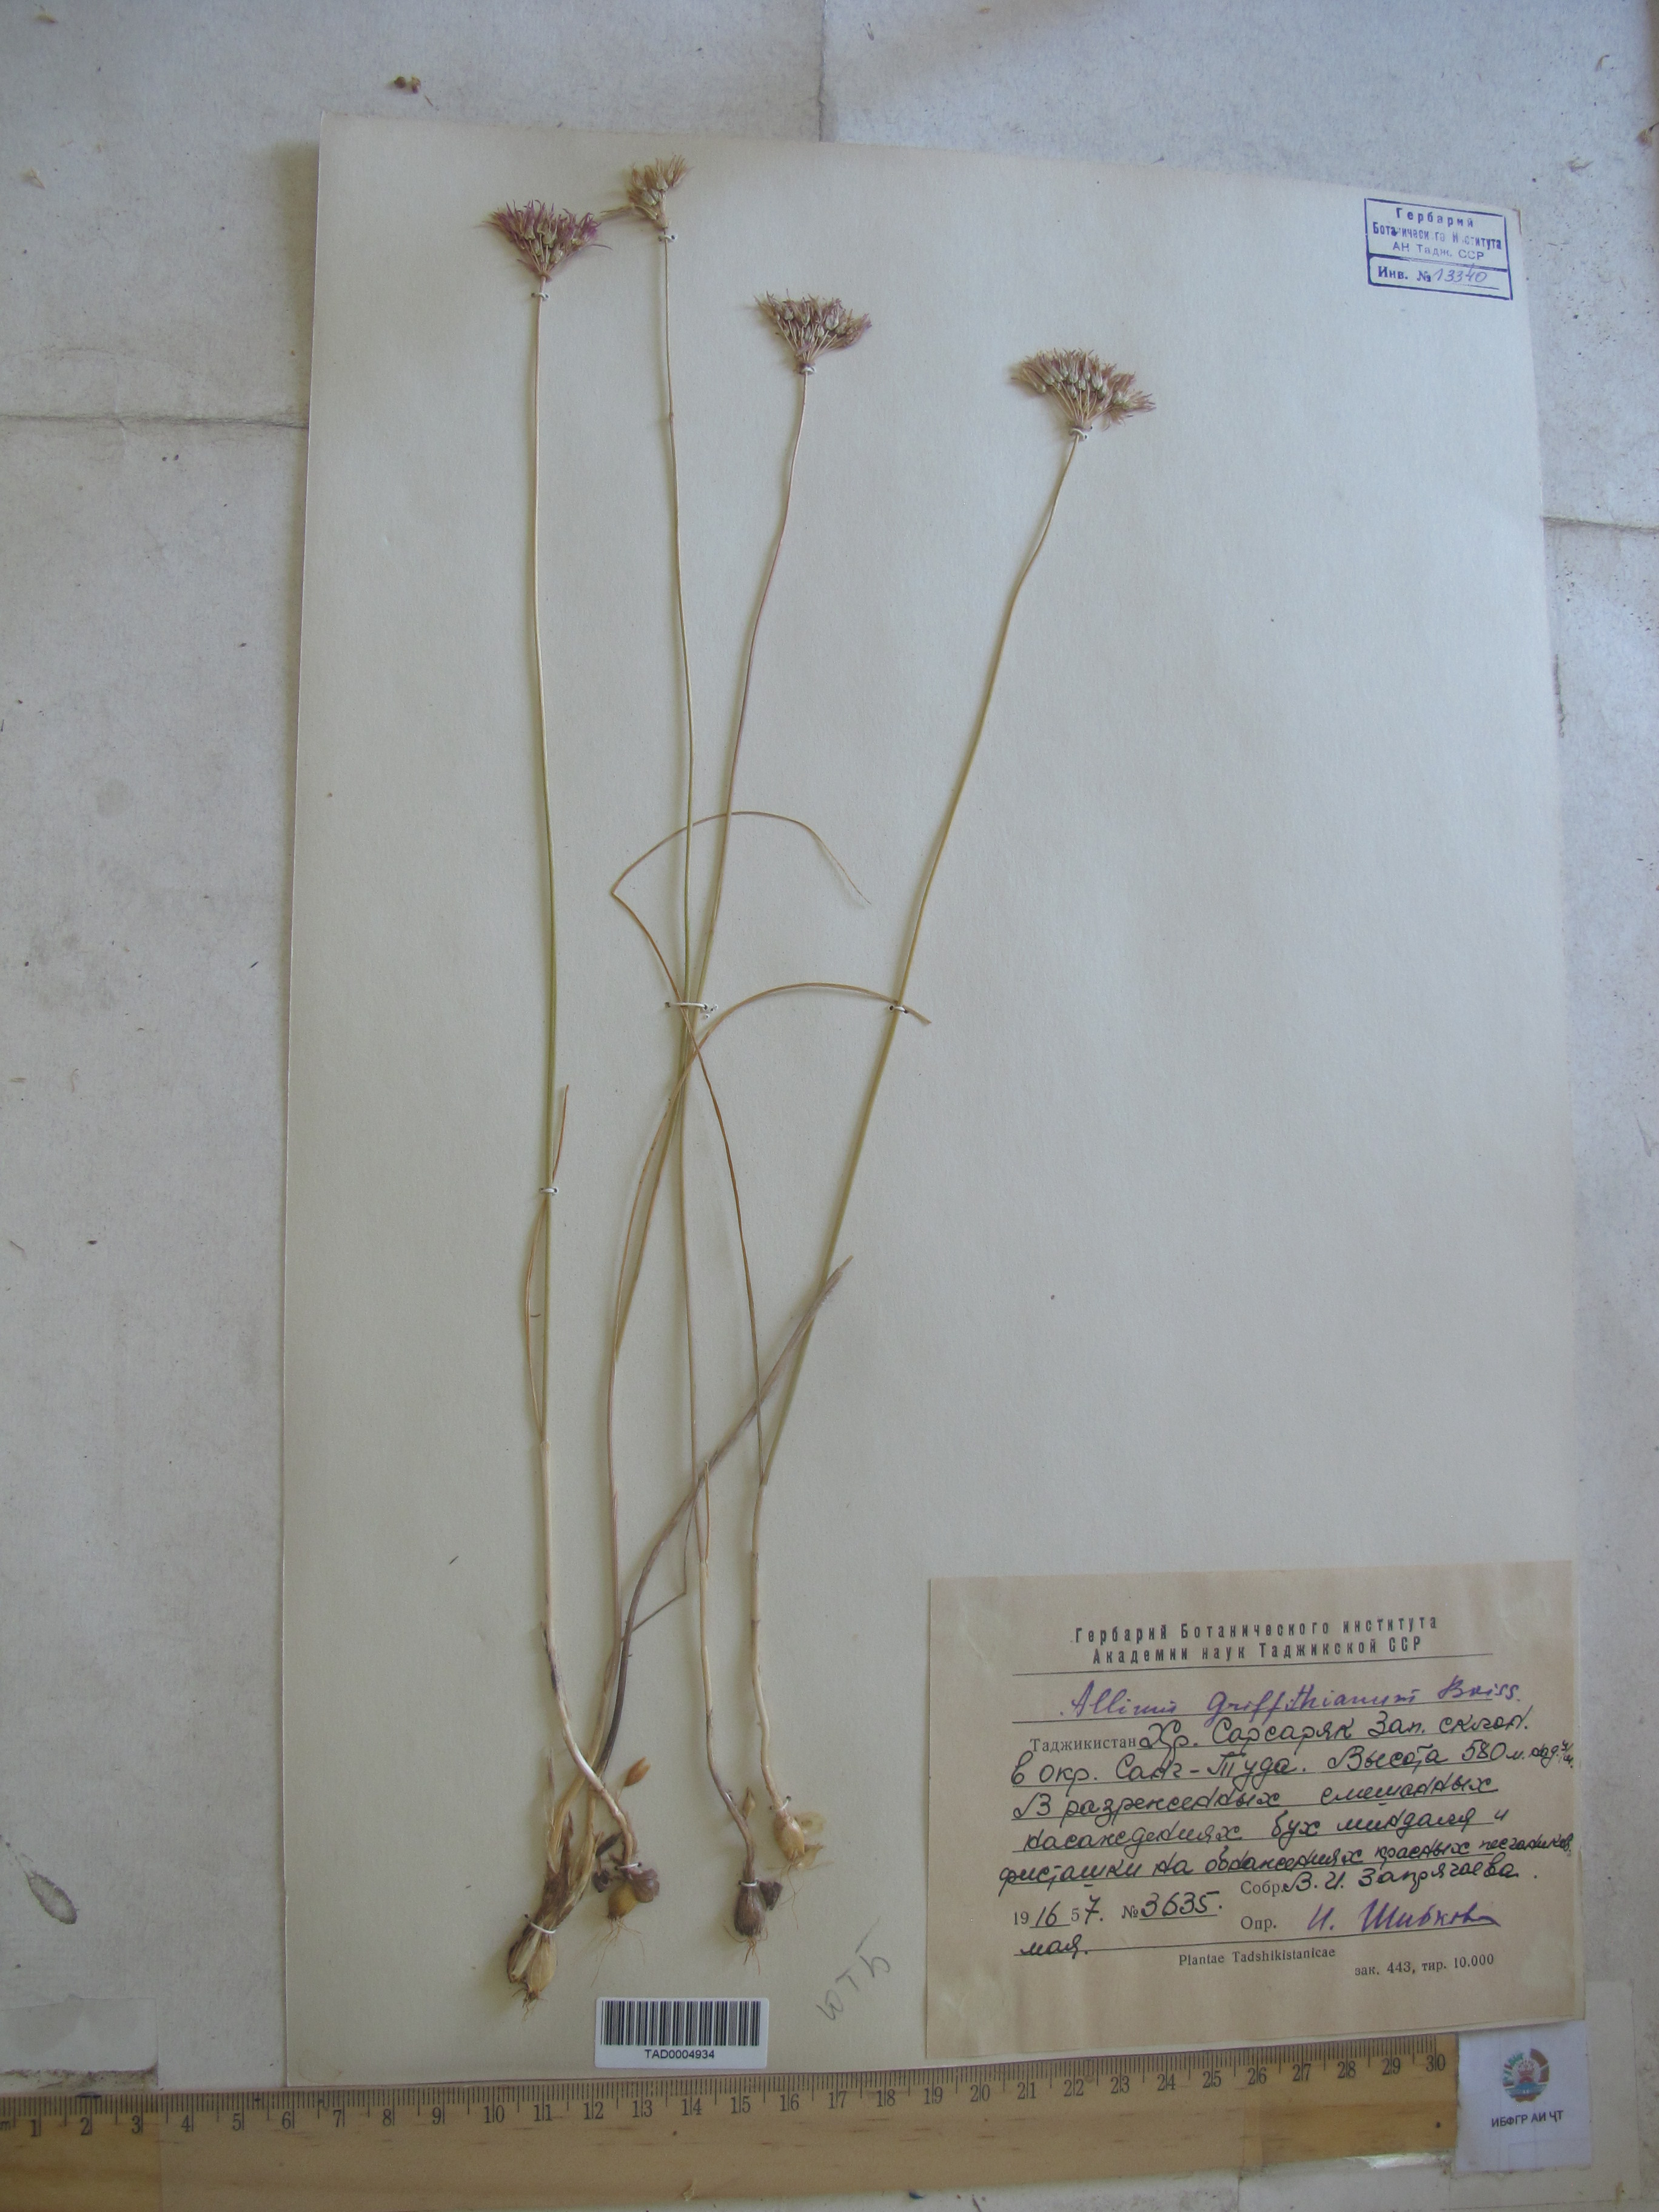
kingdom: Plantae
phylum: Tracheophyta
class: Liliopsida
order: Asparagales
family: Amaryllidaceae
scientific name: Amaryllidaceae
